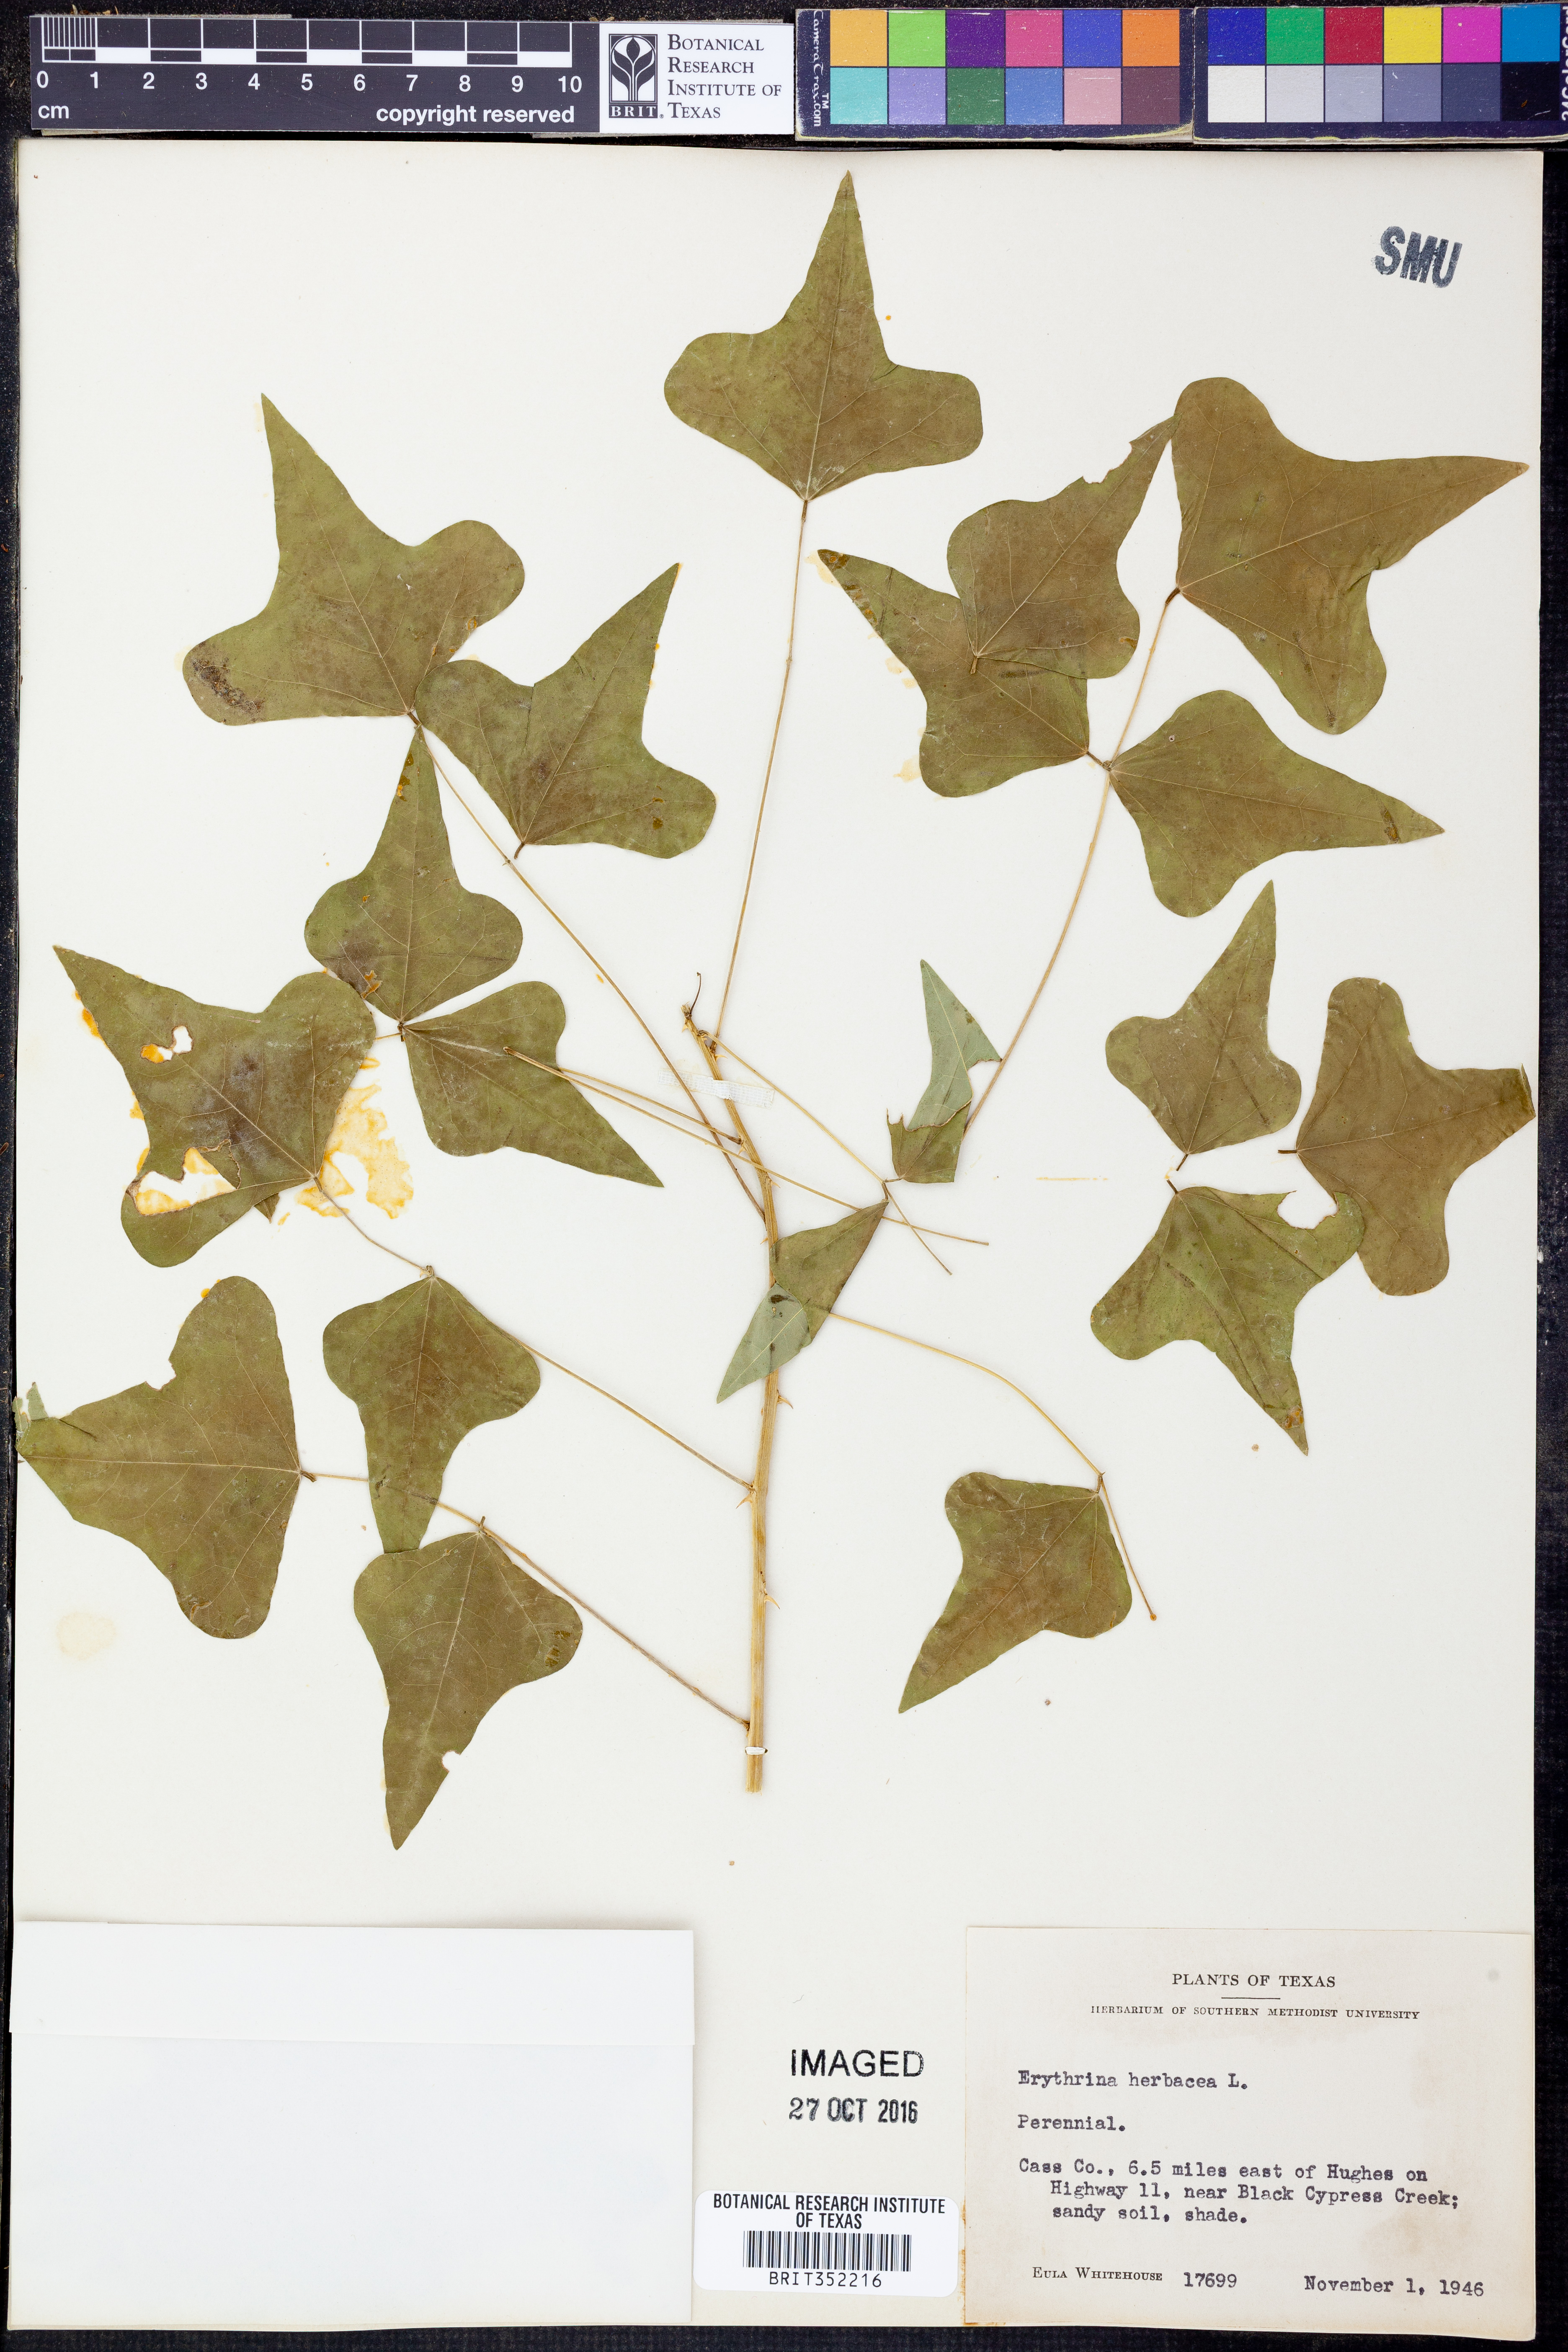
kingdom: Plantae
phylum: Tracheophyta
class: Magnoliopsida
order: Fabales
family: Fabaceae
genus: Erythrina
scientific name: Erythrina herbacea
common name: Coral-bean
